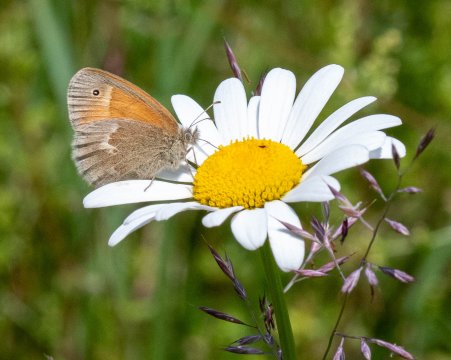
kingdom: Animalia
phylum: Arthropoda
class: Insecta
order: Lepidoptera
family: Nymphalidae
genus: Coenonympha
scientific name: Coenonympha tullia
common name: Large Heath
